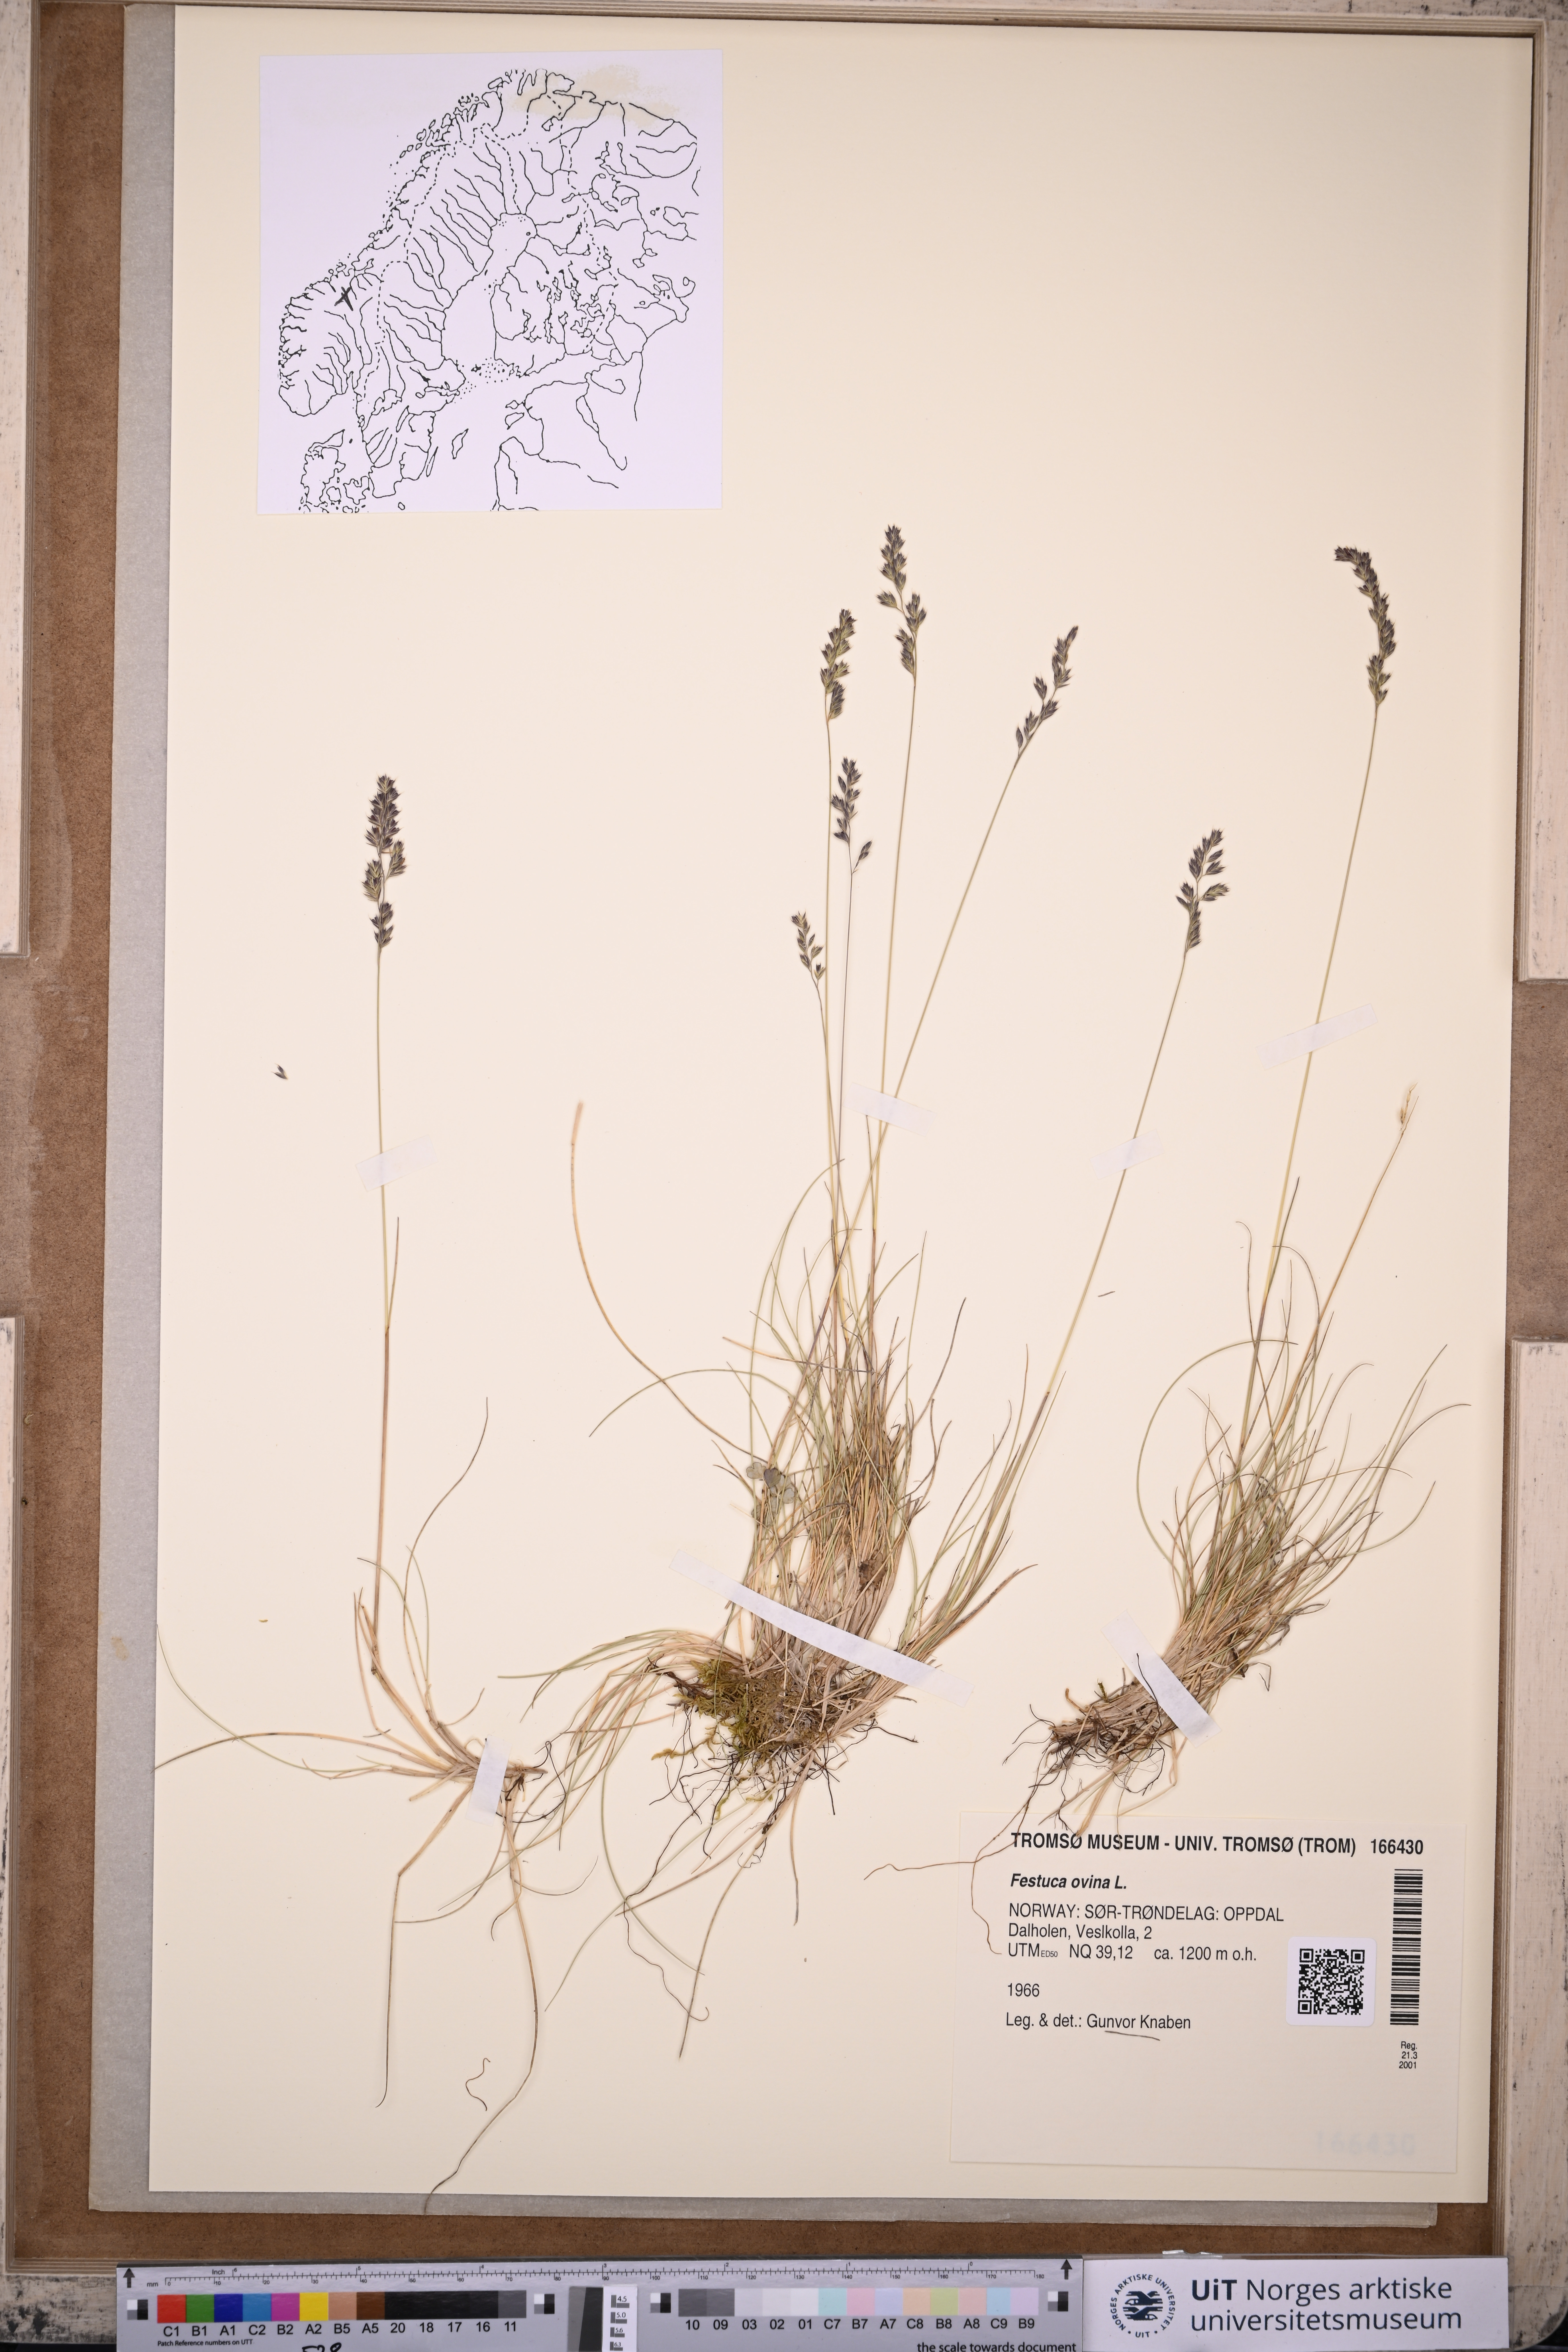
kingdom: Plantae
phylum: Tracheophyta
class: Liliopsida
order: Poales
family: Poaceae
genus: Festuca
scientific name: Festuca ovina
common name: Sheep fescue
